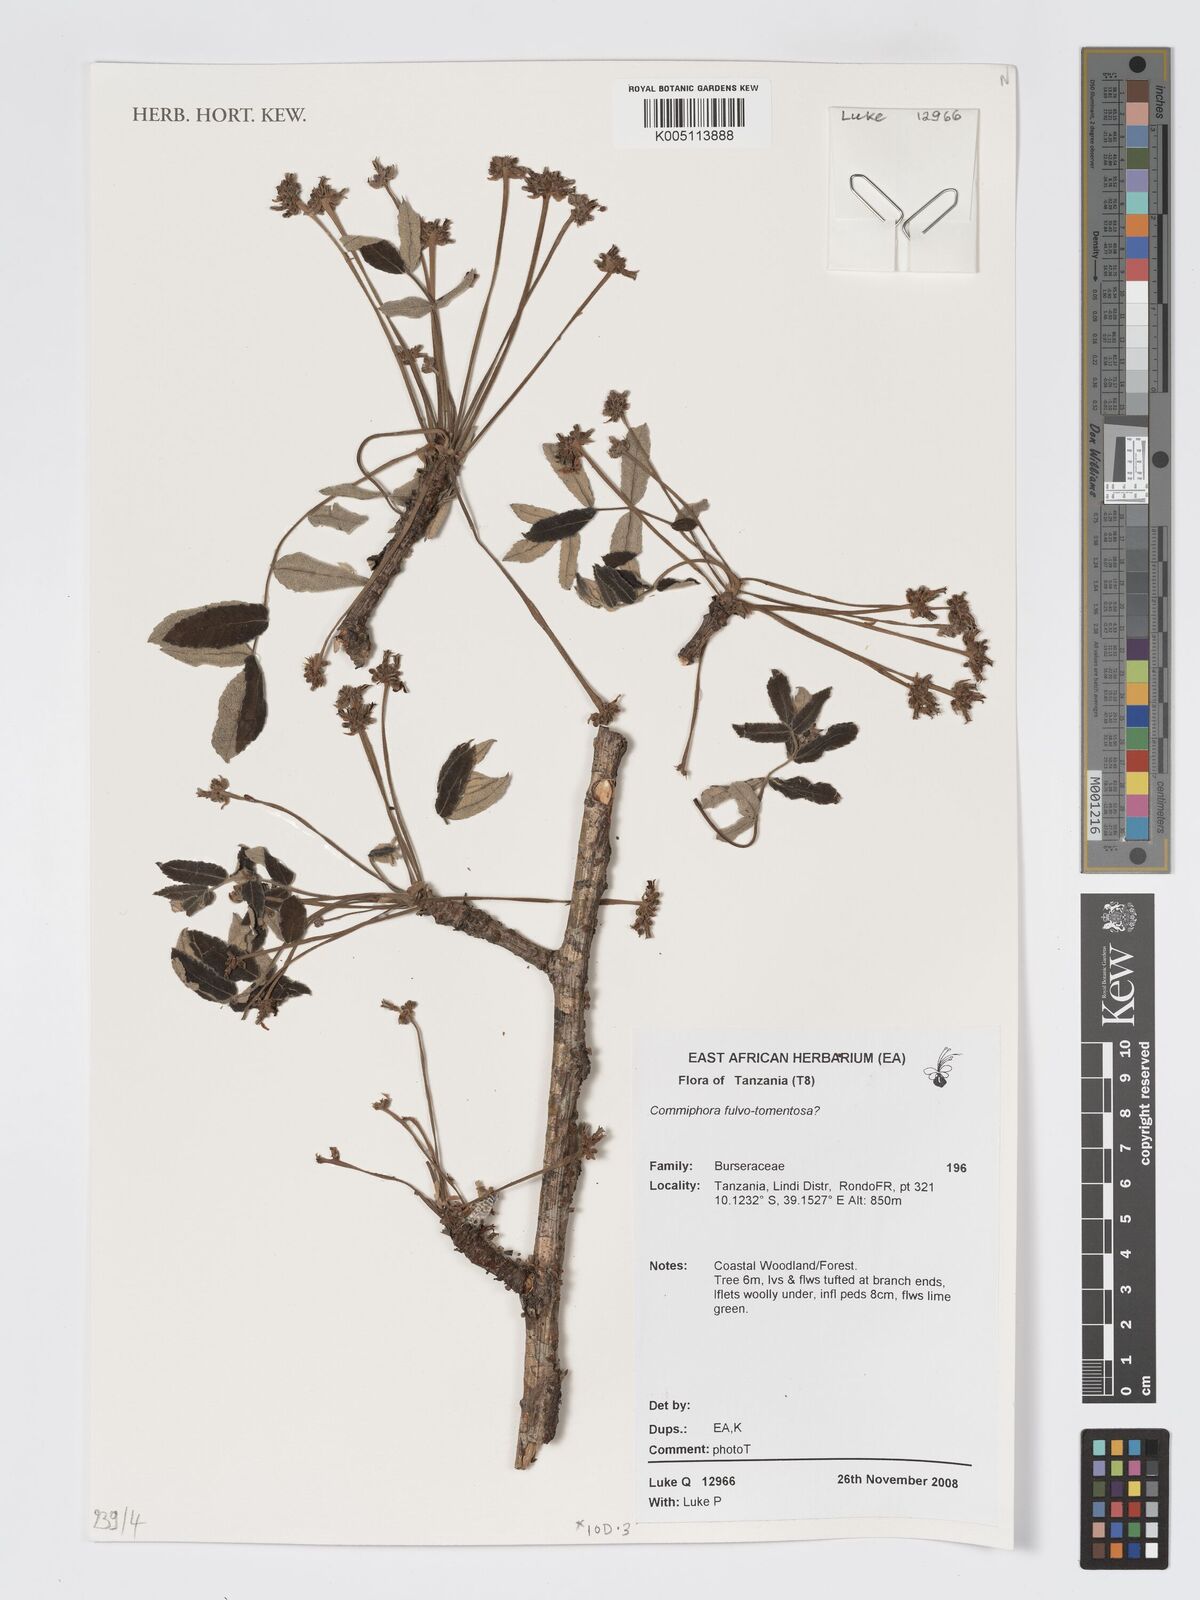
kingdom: Plantae
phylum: Tracheophyta
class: Magnoliopsida
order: Sapindales
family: Burseraceae
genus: Commiphora
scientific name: Commiphora fulvotomentosa
